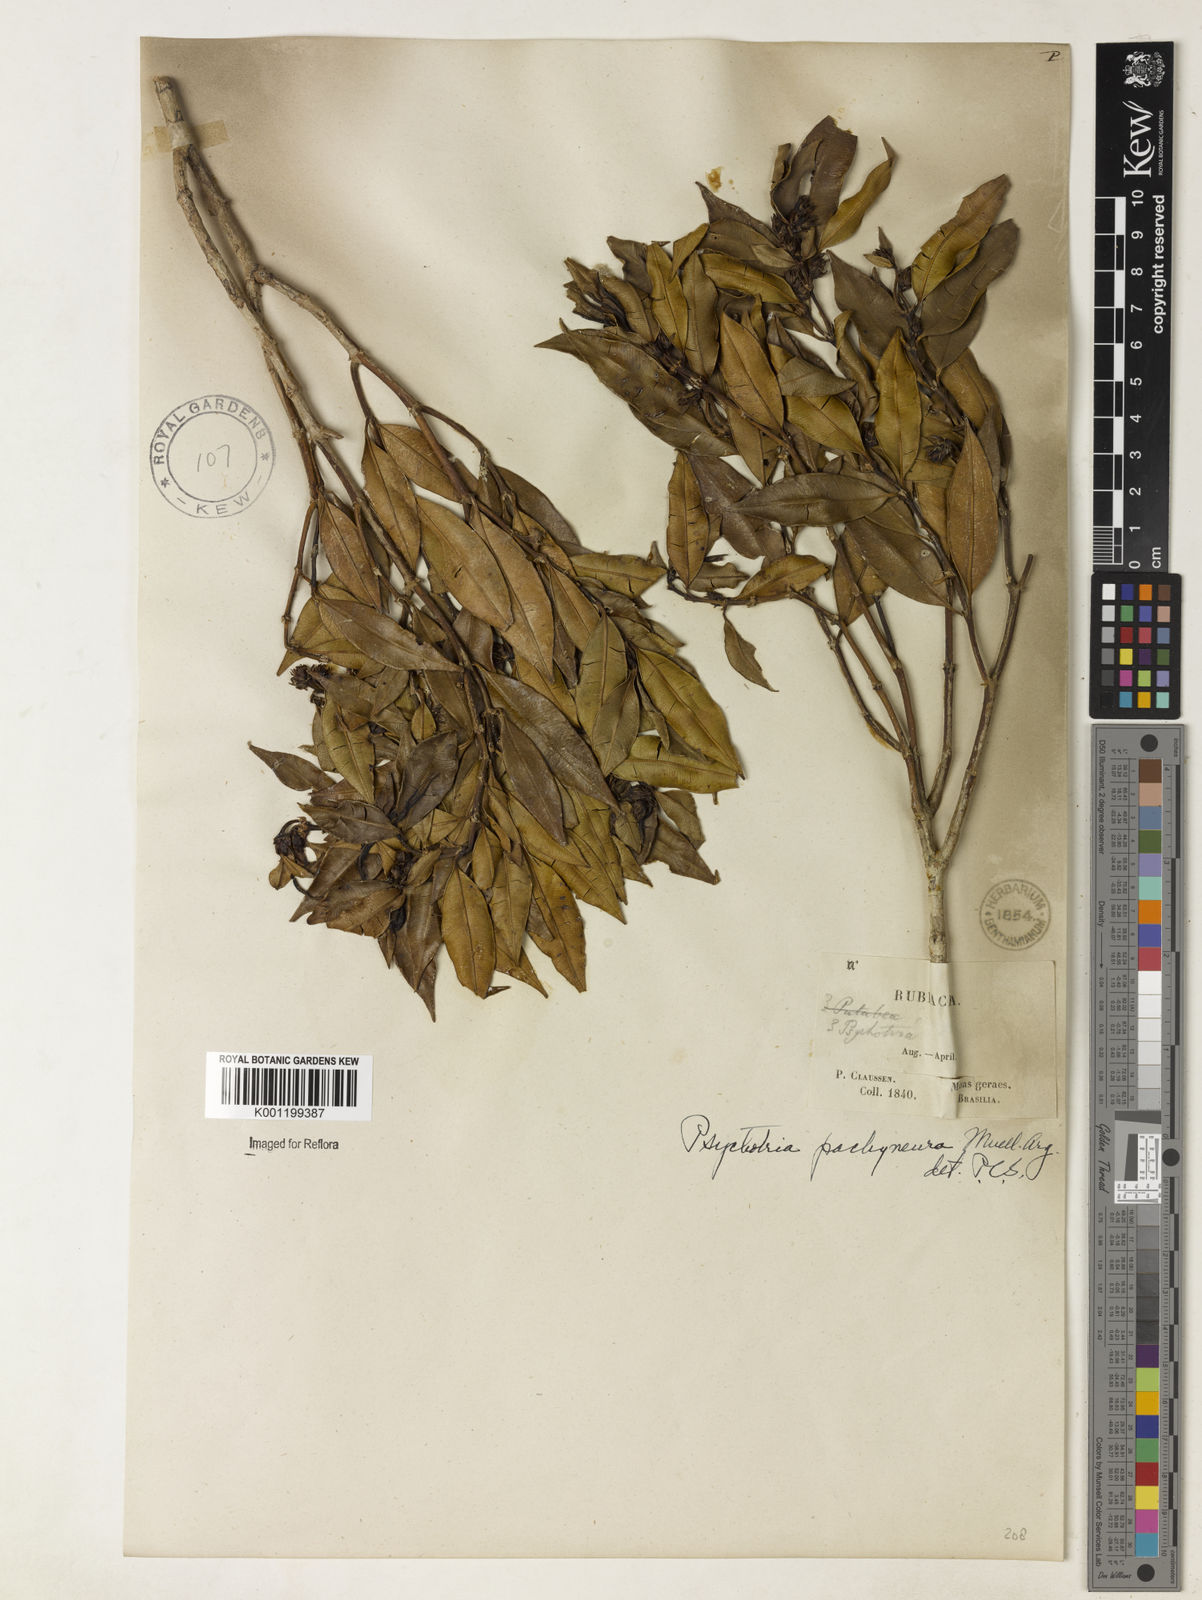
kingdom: Plantae
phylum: Tracheophyta
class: Magnoliopsida
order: Gentianales
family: Rubiaceae
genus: Psychotria
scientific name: Psychotria
